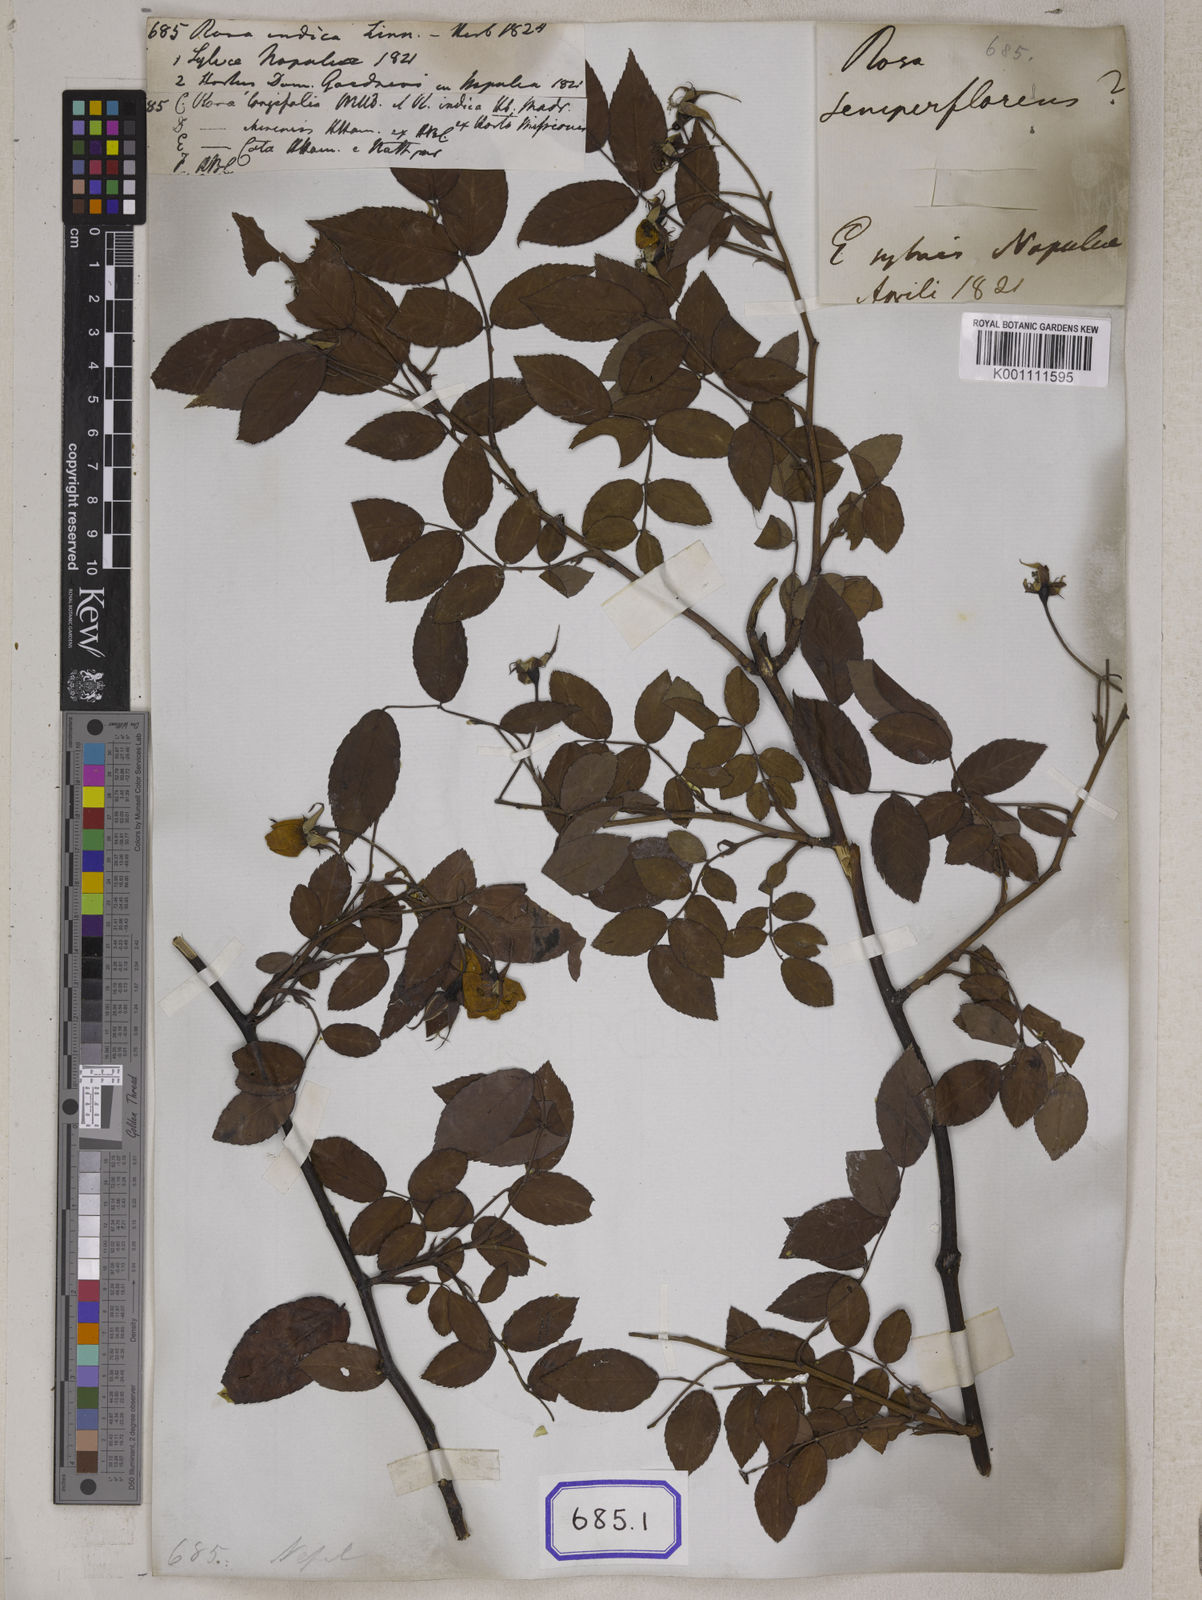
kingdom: Plantae
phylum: Tracheophyta
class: Magnoliopsida
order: Rosales
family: Rosaceae
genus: Rosa
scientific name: Rosa indica
